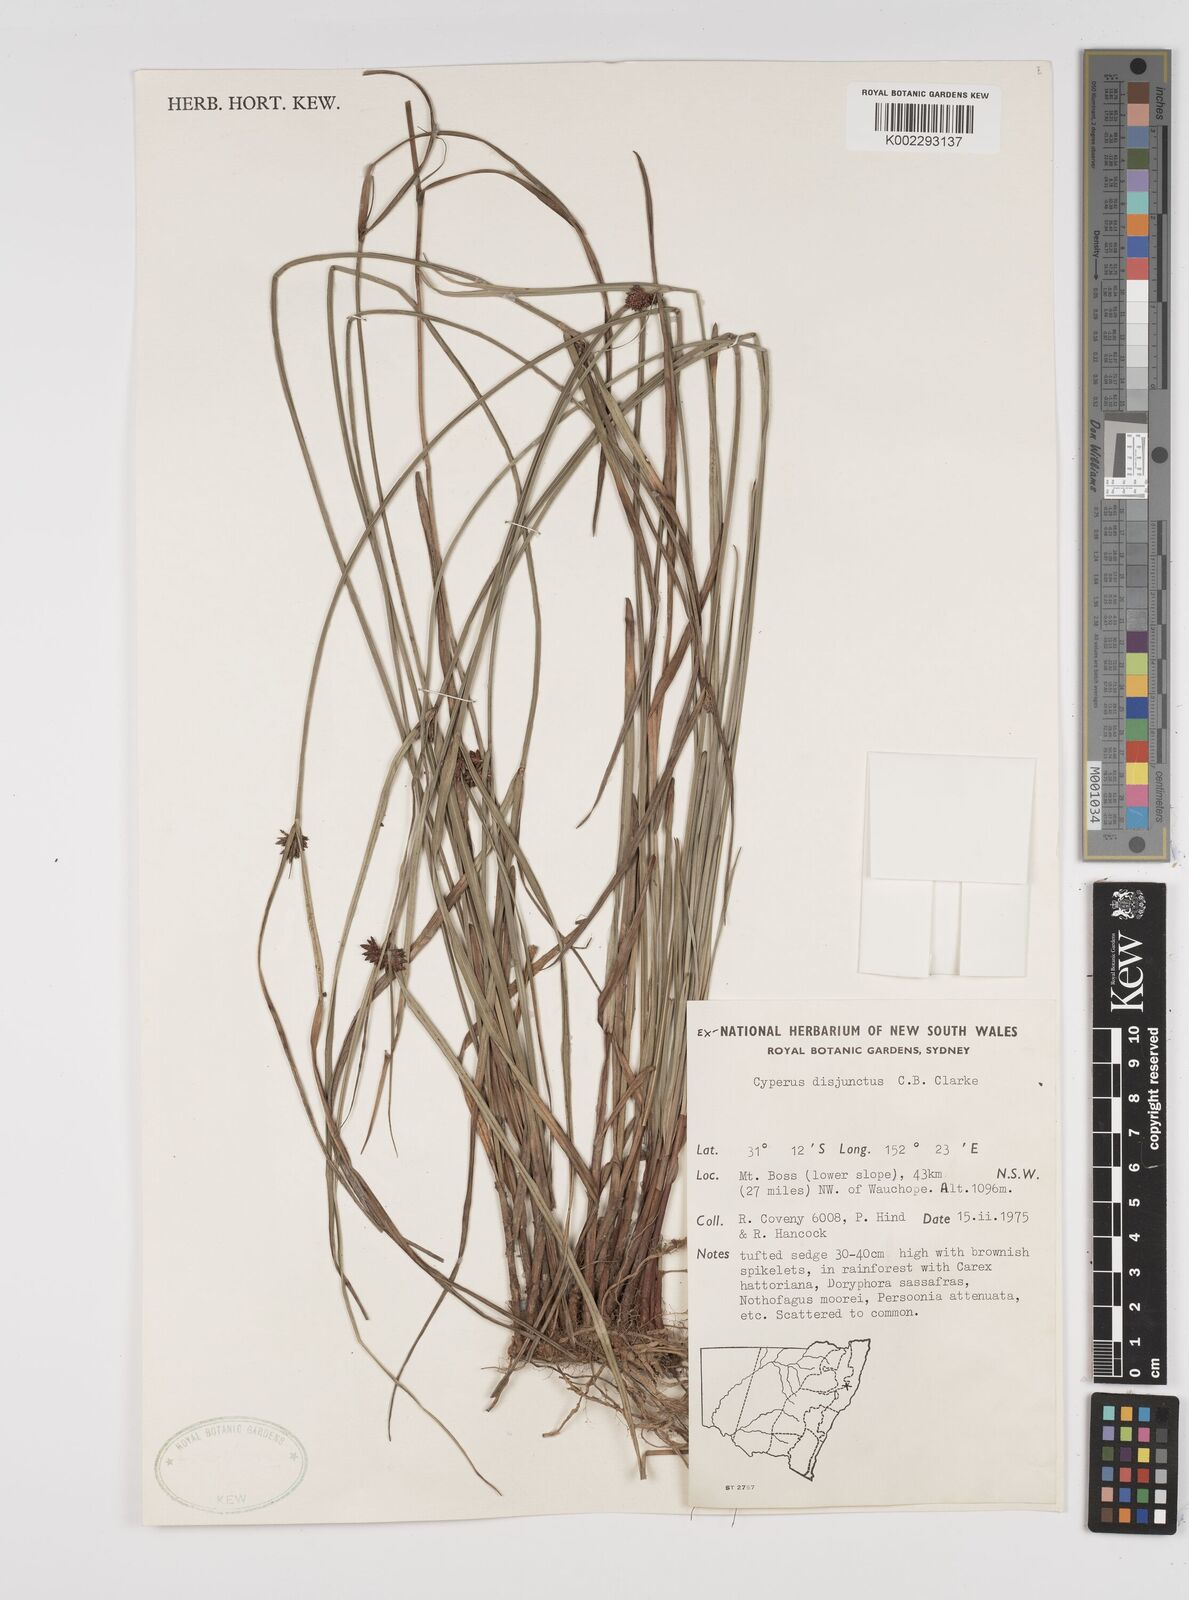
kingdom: Plantae
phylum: Tracheophyta
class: Liliopsida
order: Poales
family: Cyperaceae
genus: Cyperus
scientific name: Cyperus disjunctus
